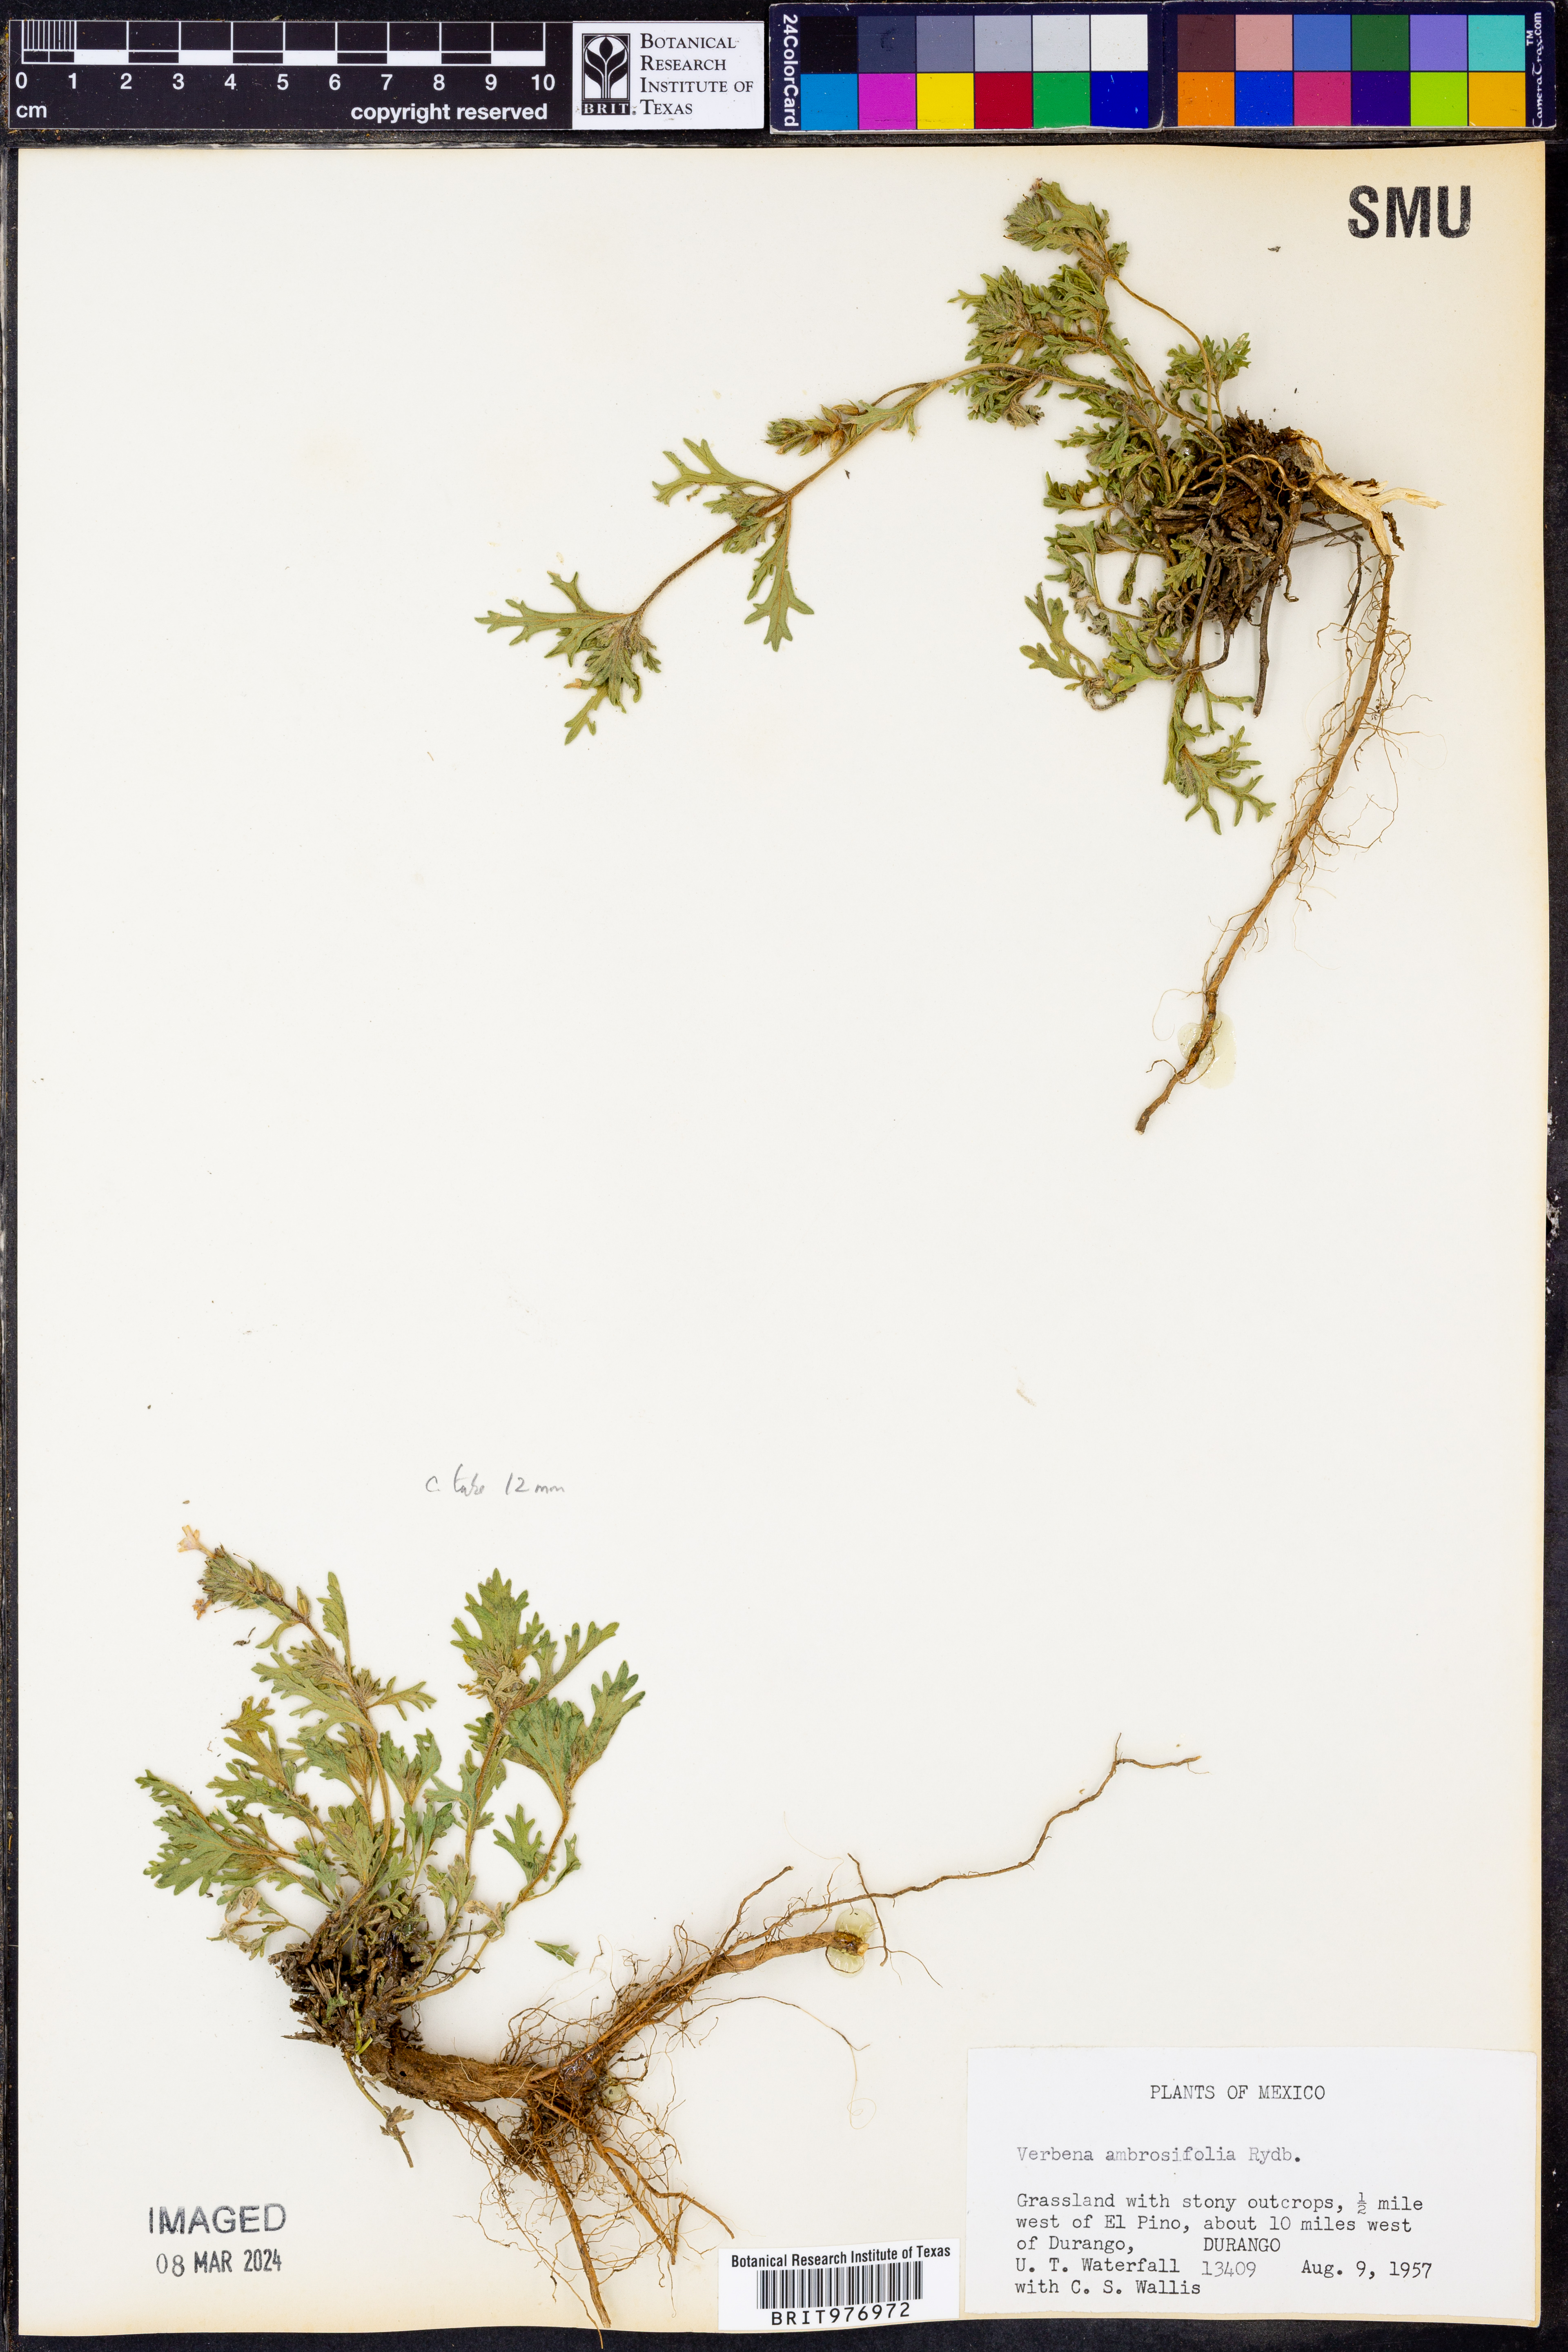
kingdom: Plantae
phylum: Tracheophyta
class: Magnoliopsida
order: Lamiales
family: Verbenaceae
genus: Verbena
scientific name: Verbena
